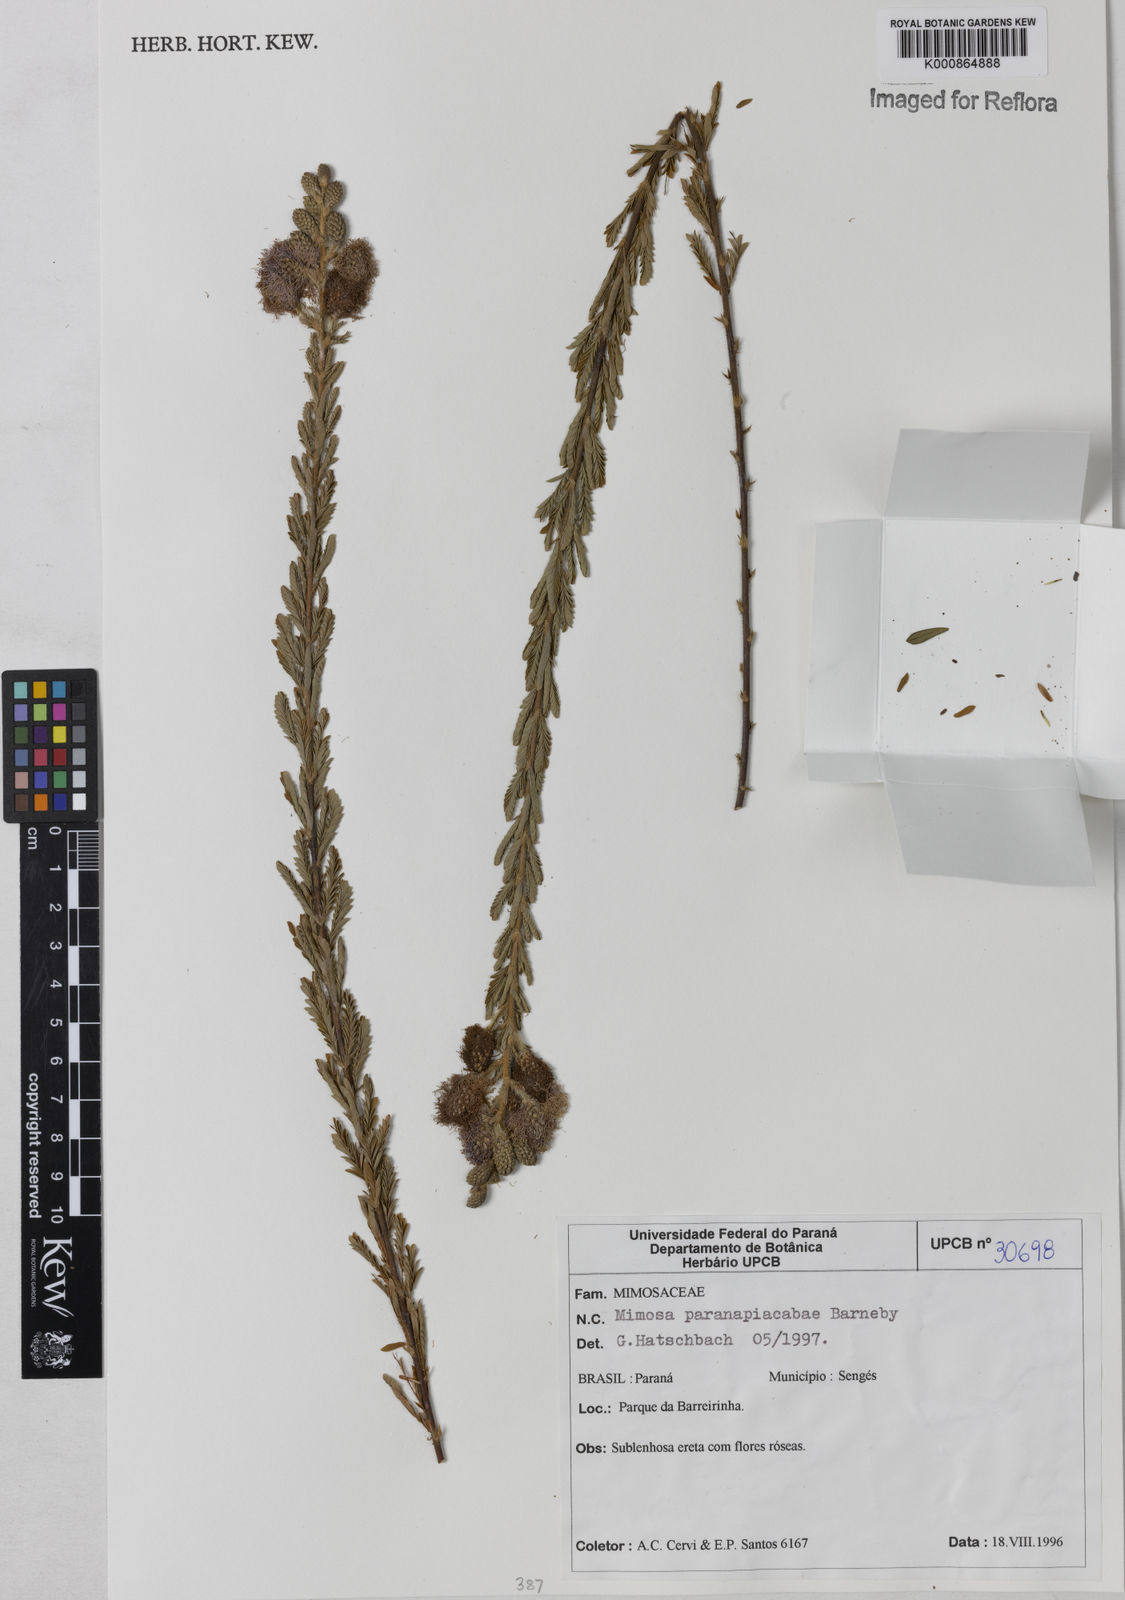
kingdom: Plantae
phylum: Tracheophyta
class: Magnoliopsida
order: Fabales
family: Fabaceae
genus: Mimosa
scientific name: Mimosa paranapiacabae
